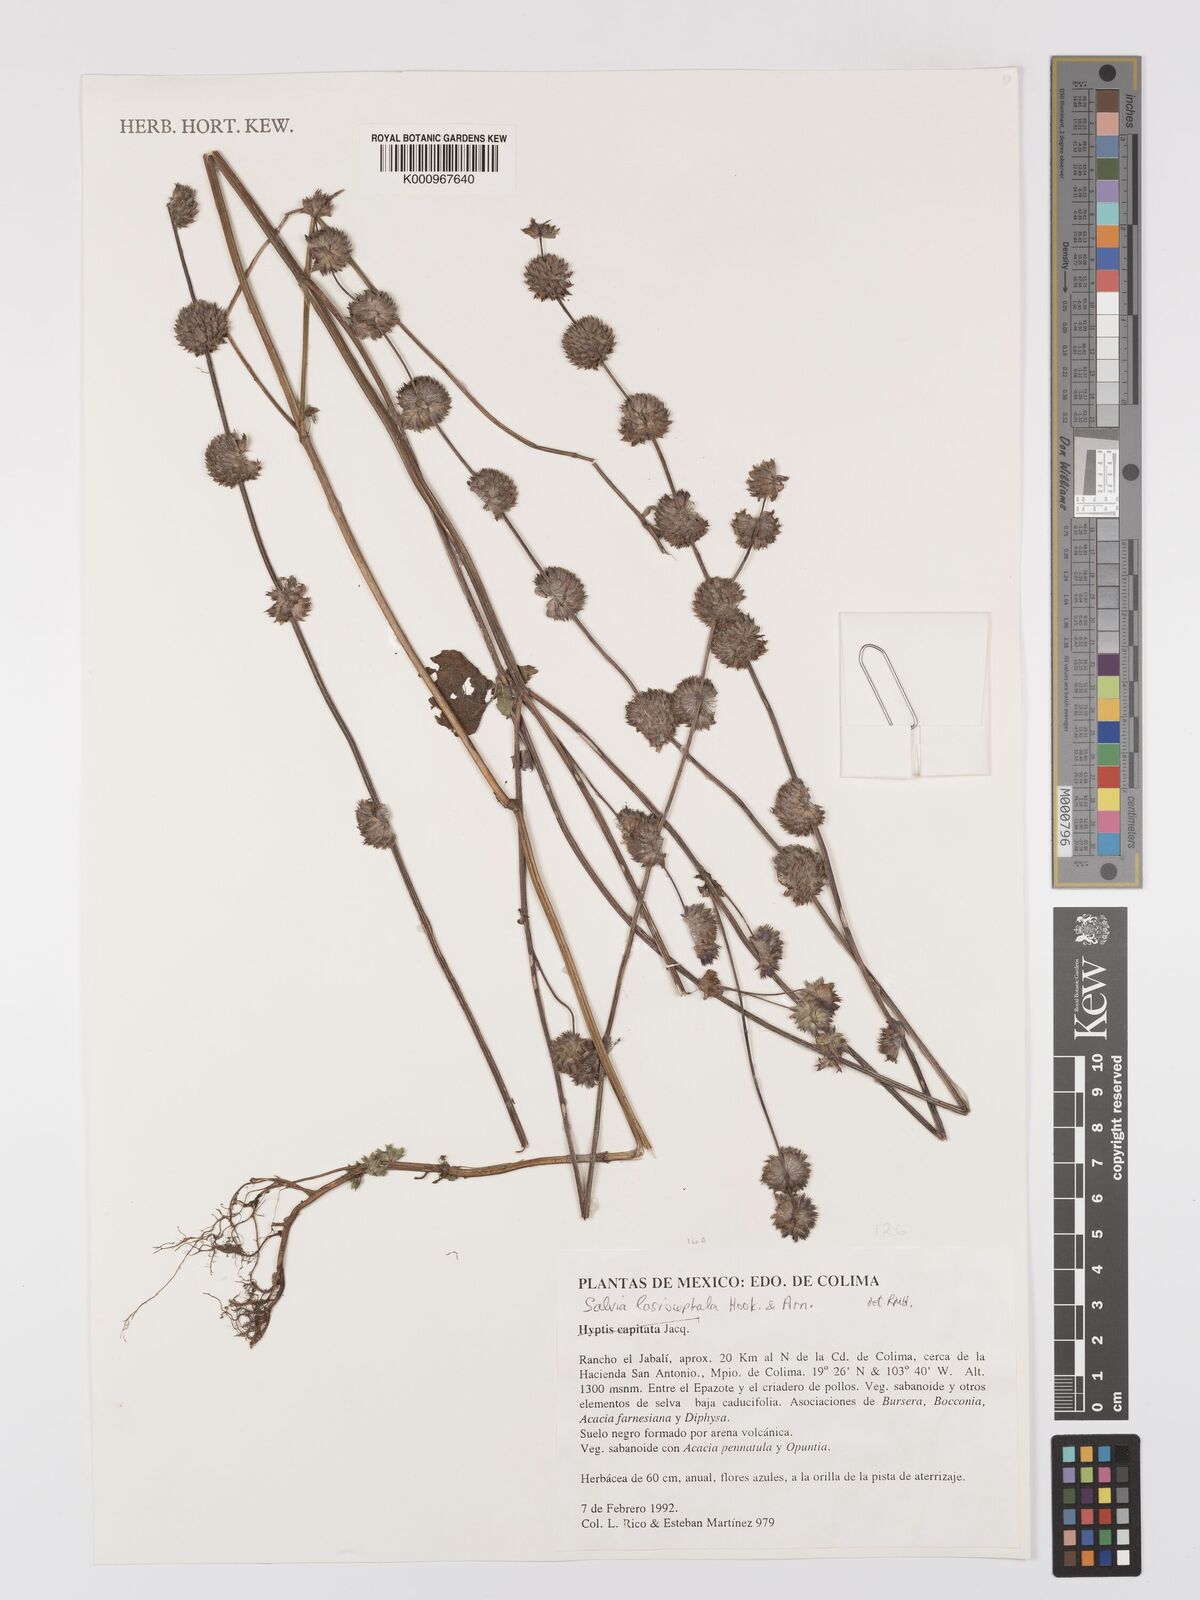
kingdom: Plantae
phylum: Tracheophyta
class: Magnoliopsida
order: Lamiales
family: Lamiaceae
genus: Salvia
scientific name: Salvia lasiocephala
